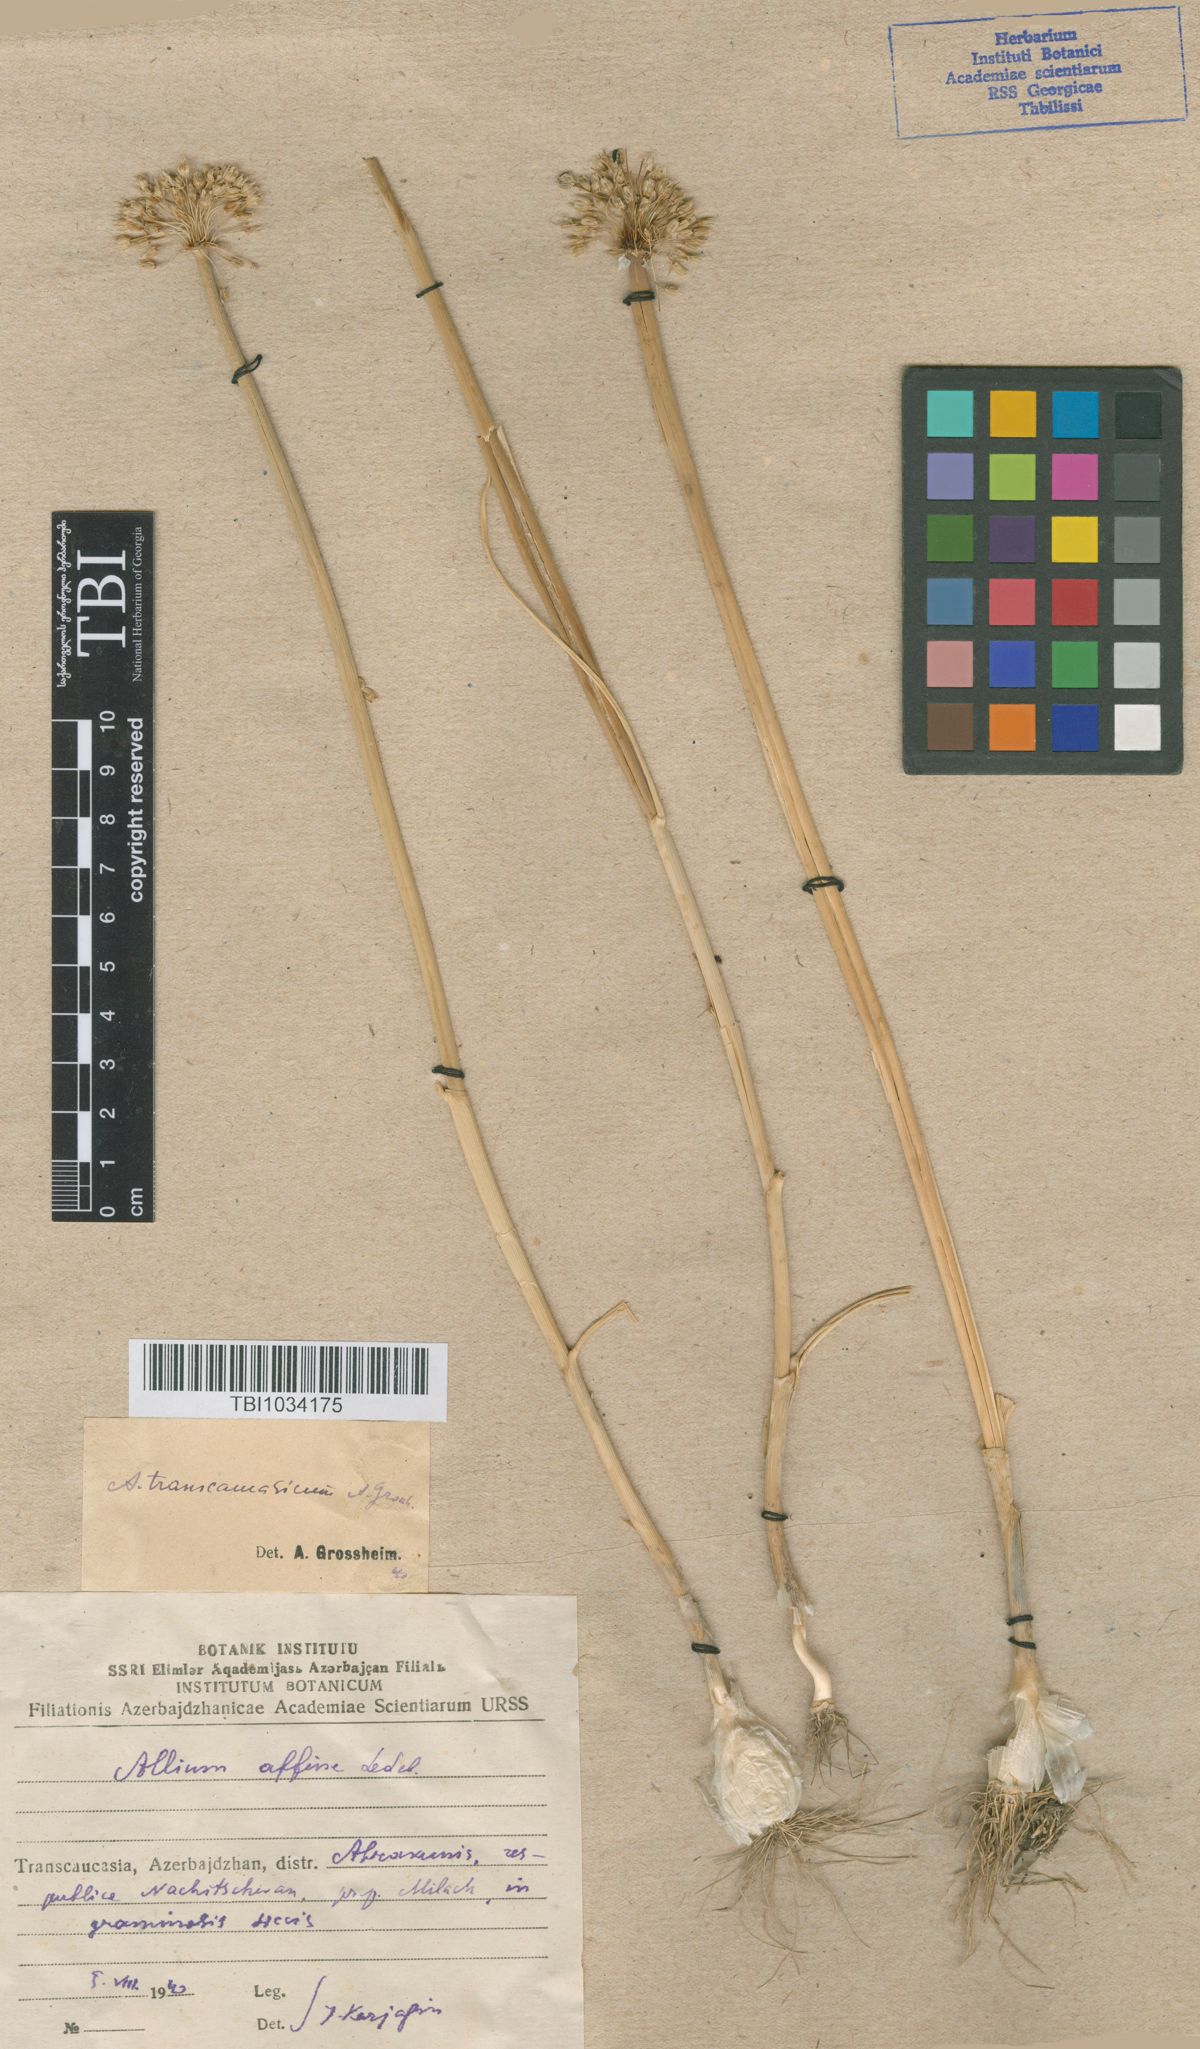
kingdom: Plantae
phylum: Tracheophyta
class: Liliopsida
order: Asparagales
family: Amaryllidaceae
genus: Allium
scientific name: Allium affine
